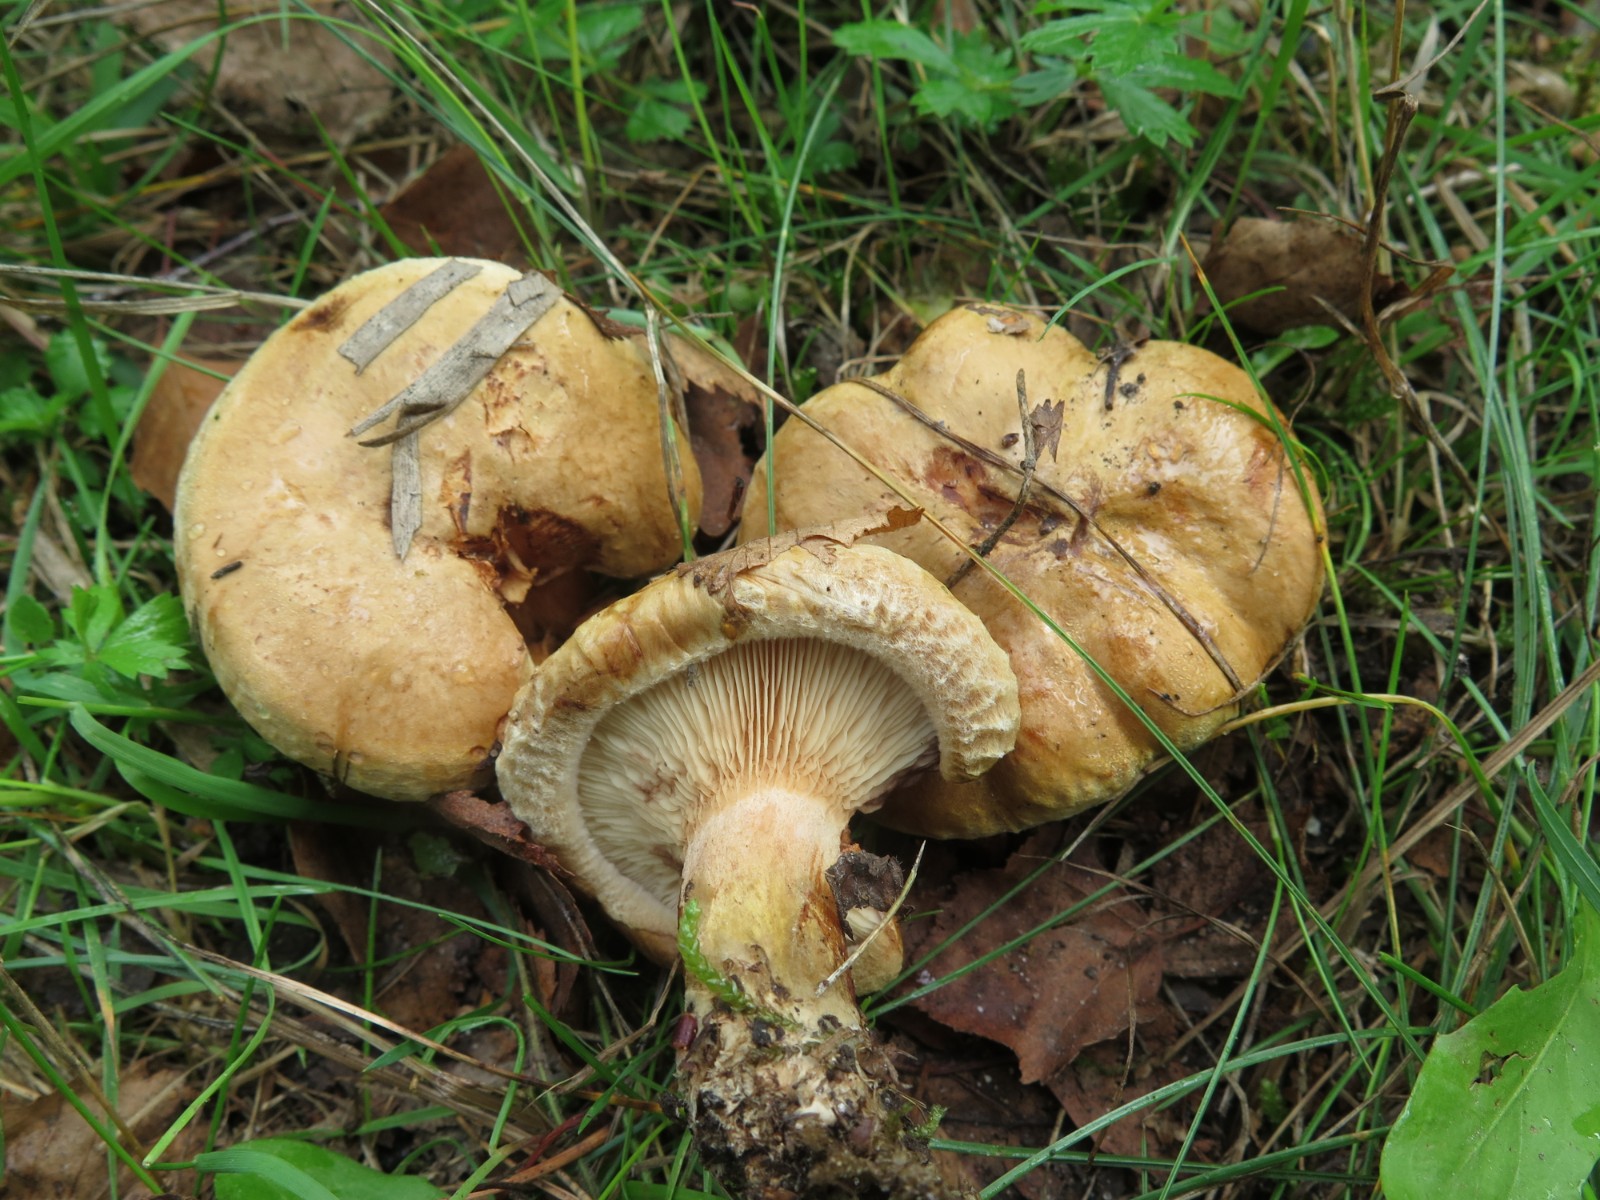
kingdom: Fungi
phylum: Basidiomycota
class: Agaricomycetes
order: Boletales
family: Paxillaceae
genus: Paxillus
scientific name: Paxillus involutus
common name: almindelig netbladhat
